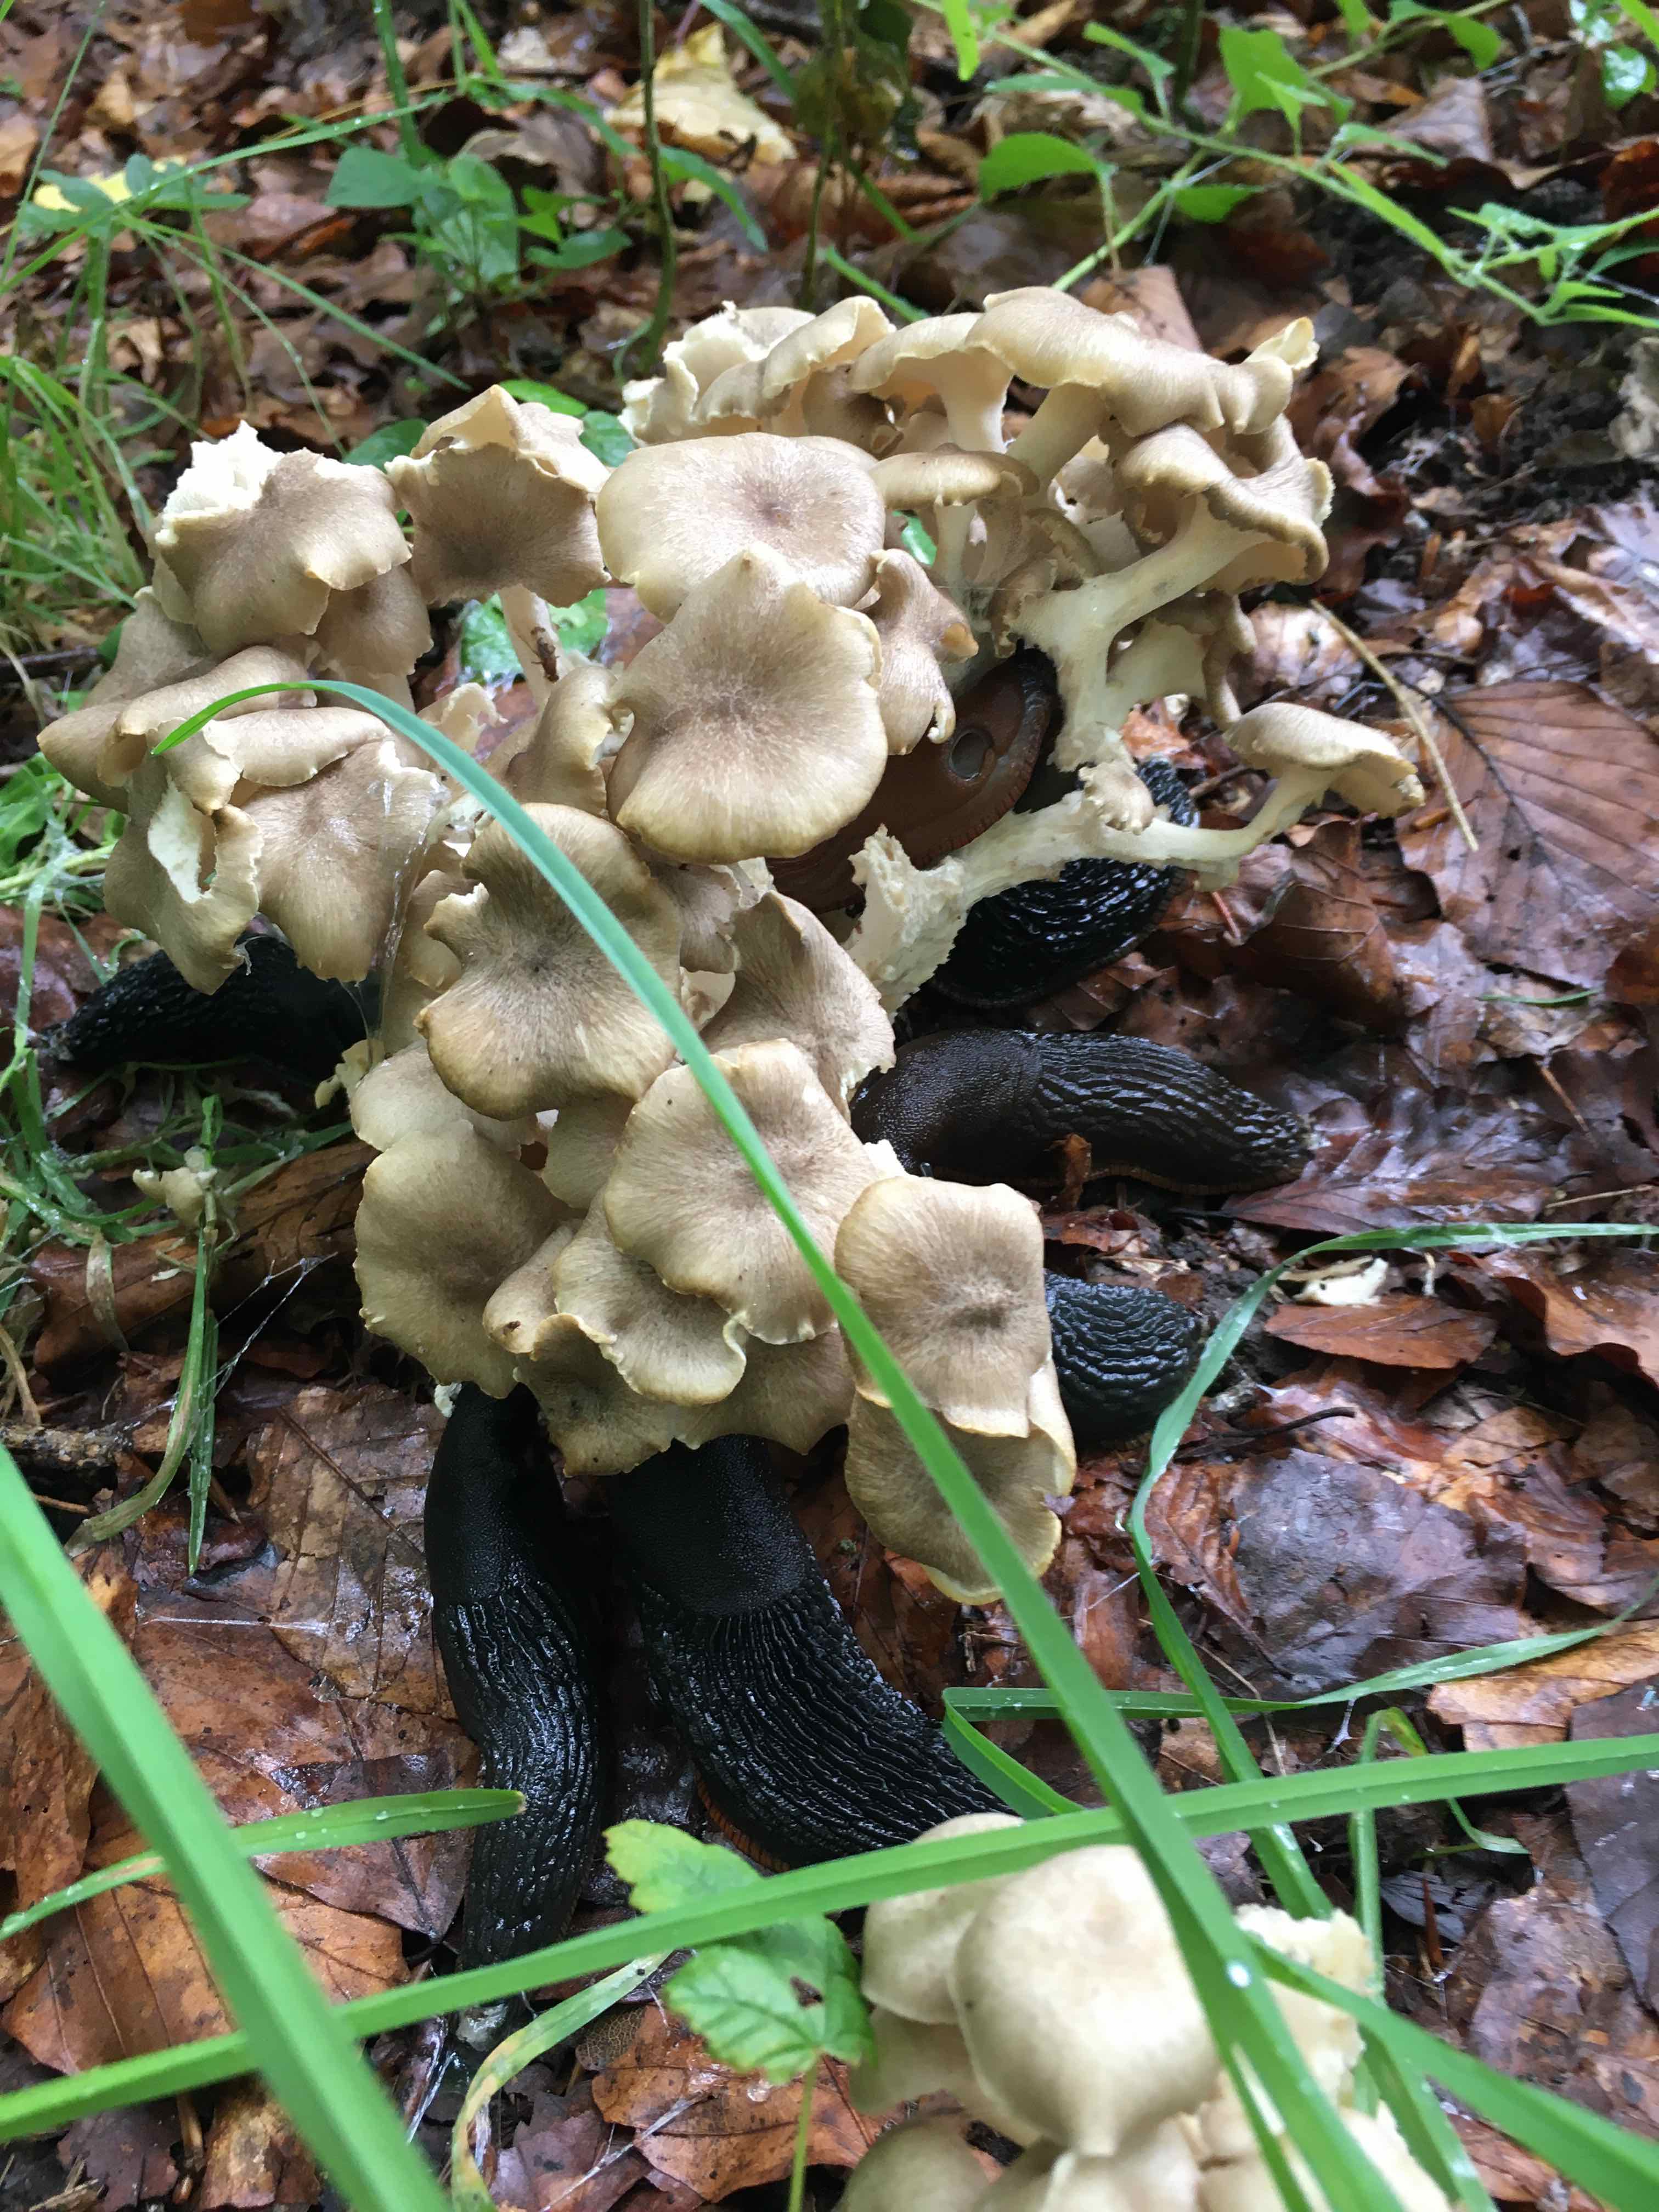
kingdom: Fungi
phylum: Basidiomycota
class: Agaricomycetes
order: Polyporales
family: Polyporaceae
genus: Polyporus
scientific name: Polyporus umbellatus
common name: skærmformet stilkporesvamp
